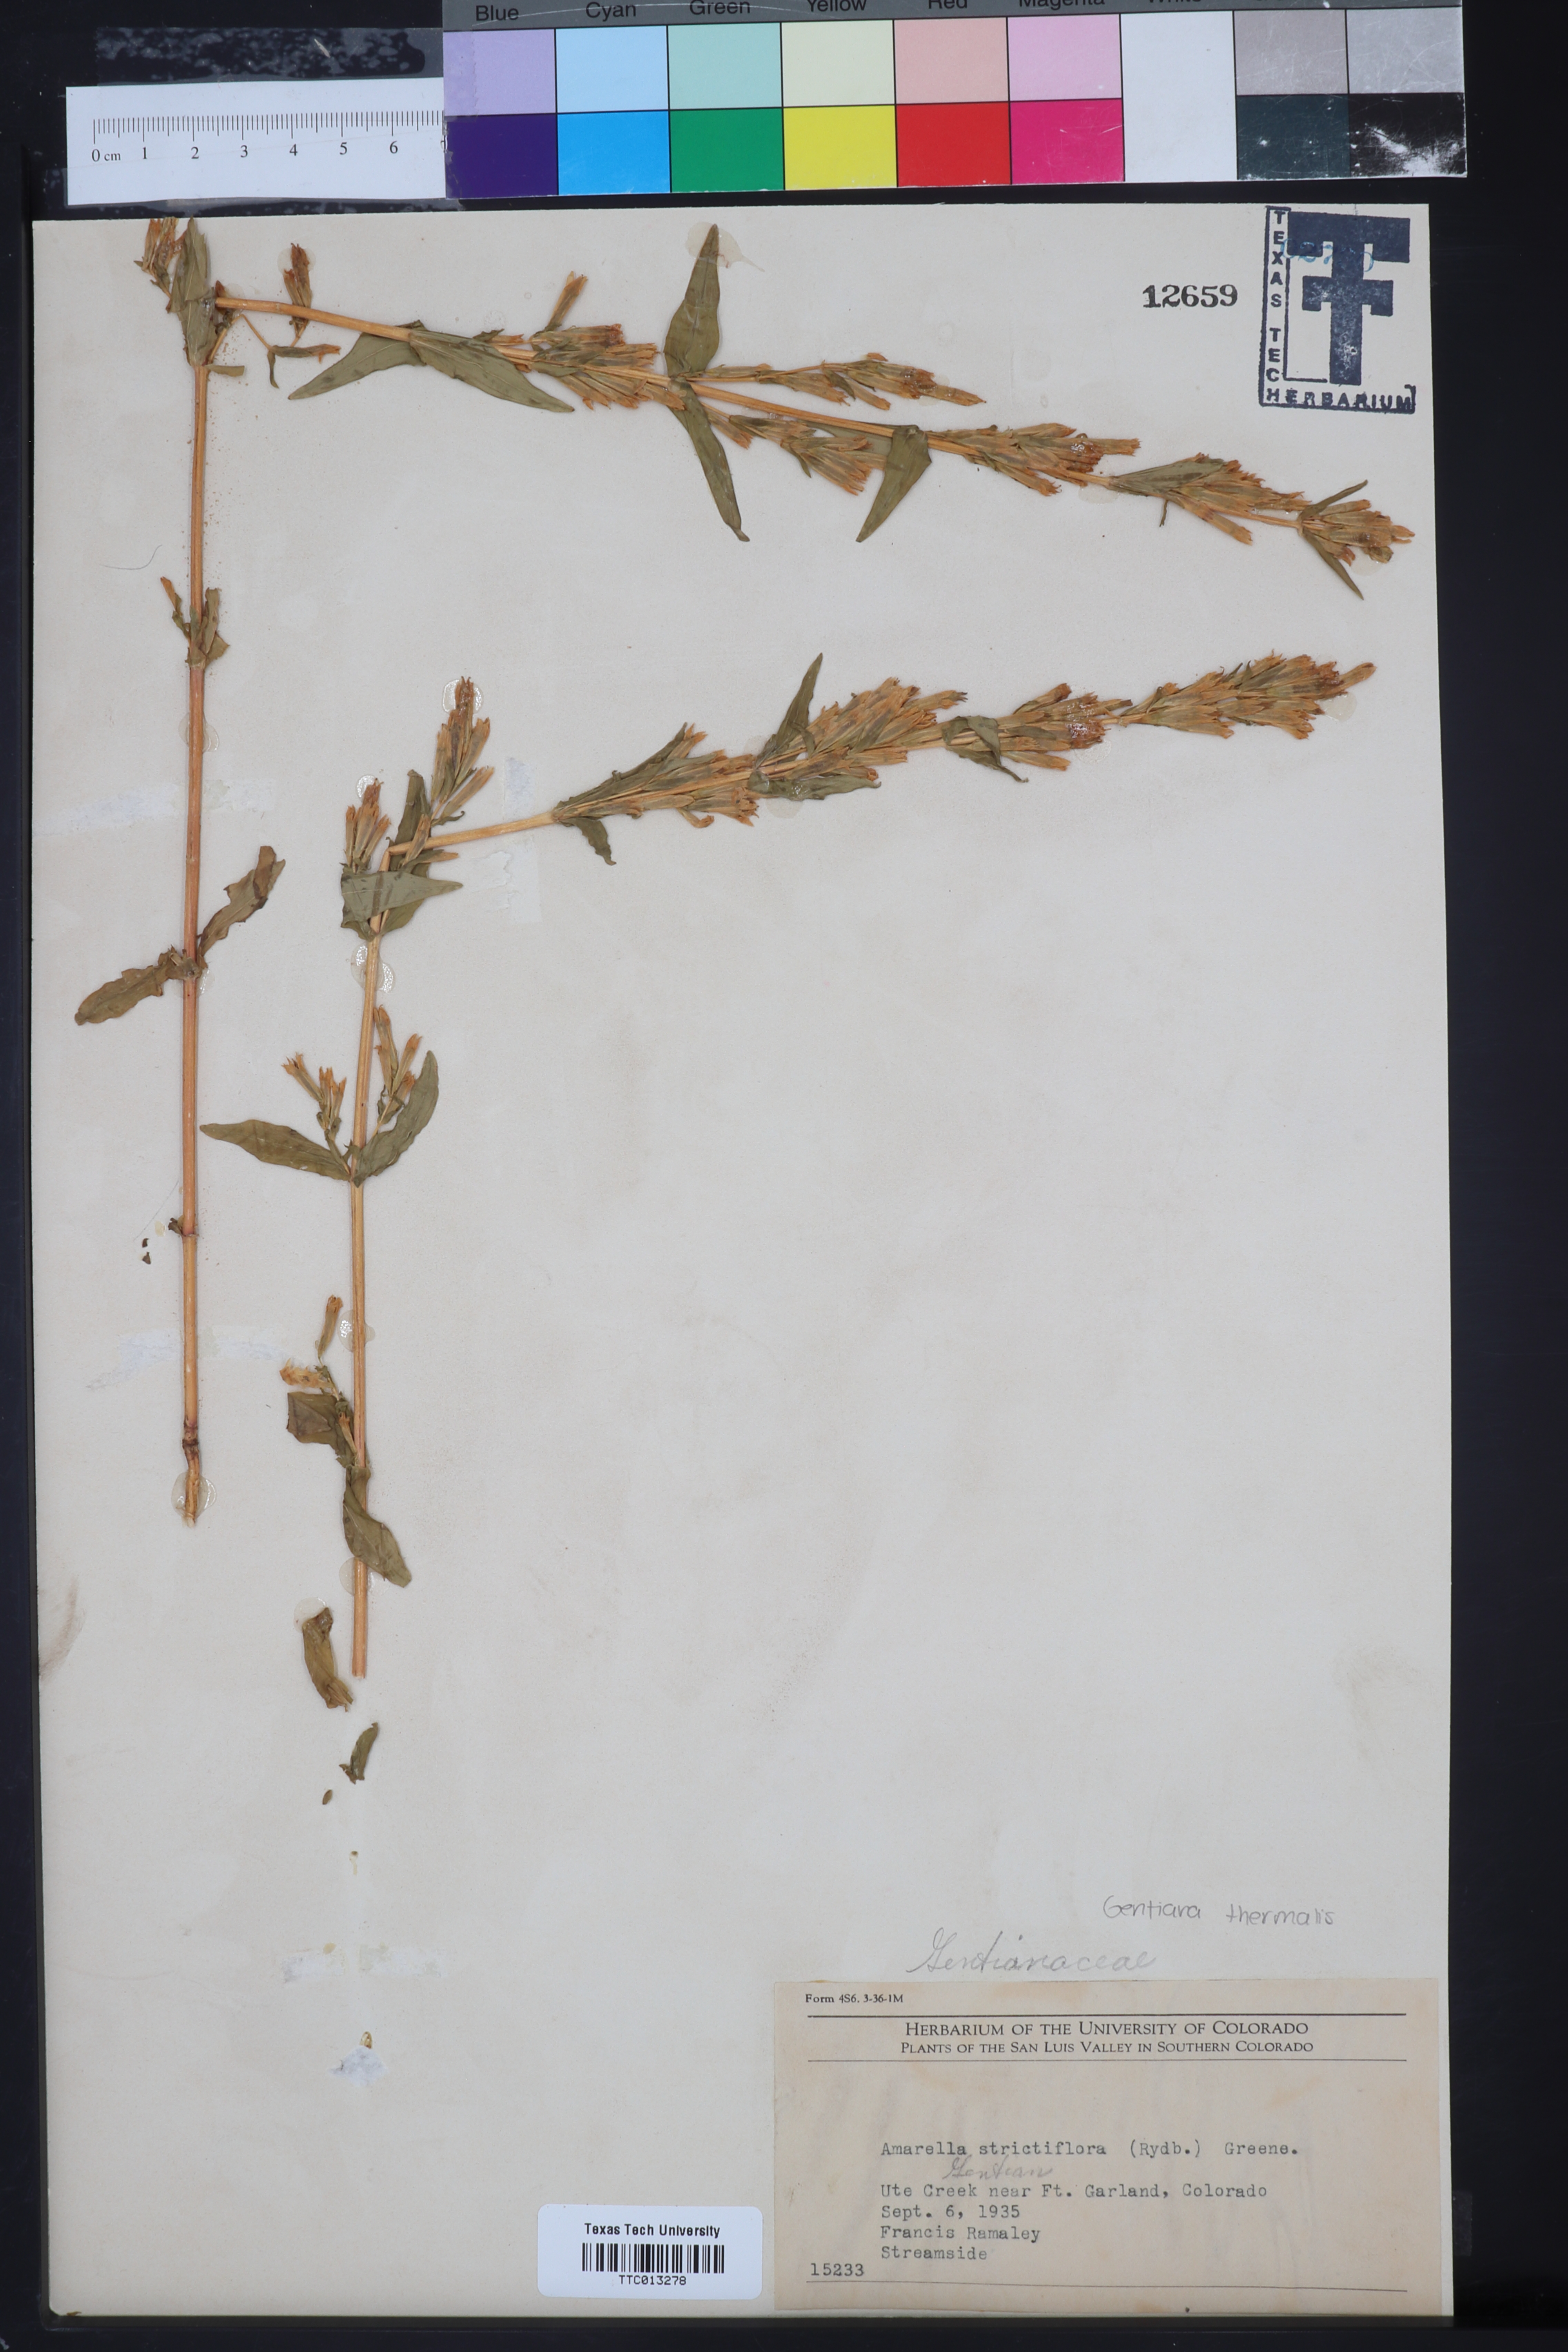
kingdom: Plantae
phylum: Tracheophyta
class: Magnoliopsida
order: Gentianales
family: Gentianaceae
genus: Gentianella
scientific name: Gentianella amarella
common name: Autumn gentian
